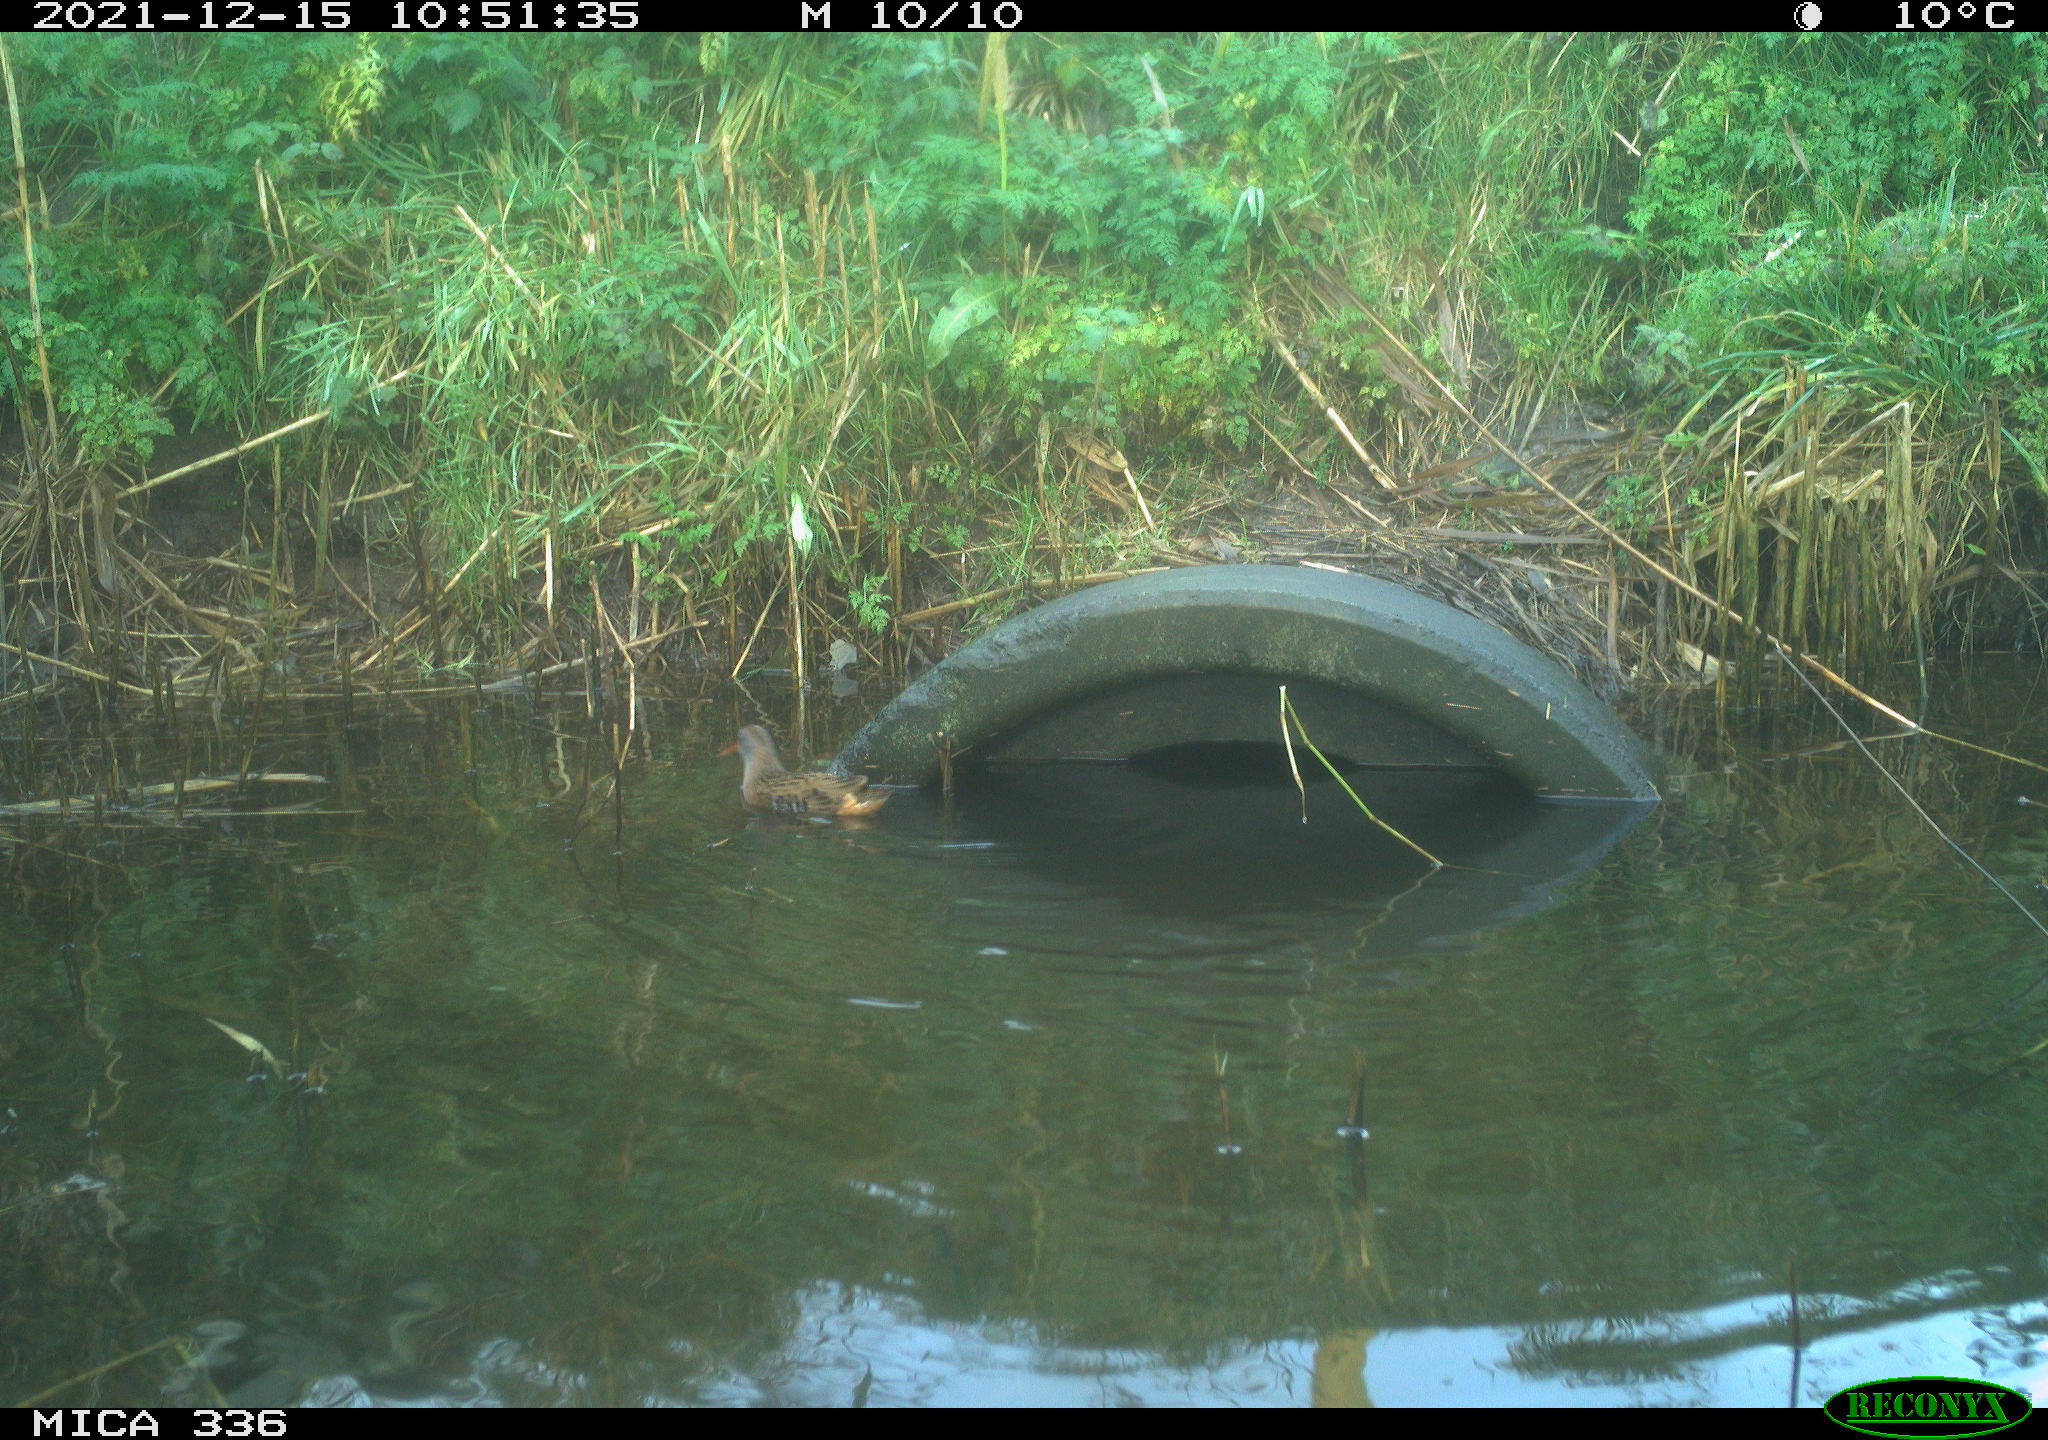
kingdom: Animalia
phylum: Chordata
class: Aves
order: Gruiformes
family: Rallidae
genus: Gallinula
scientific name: Gallinula chloropus
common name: Common moorhen
